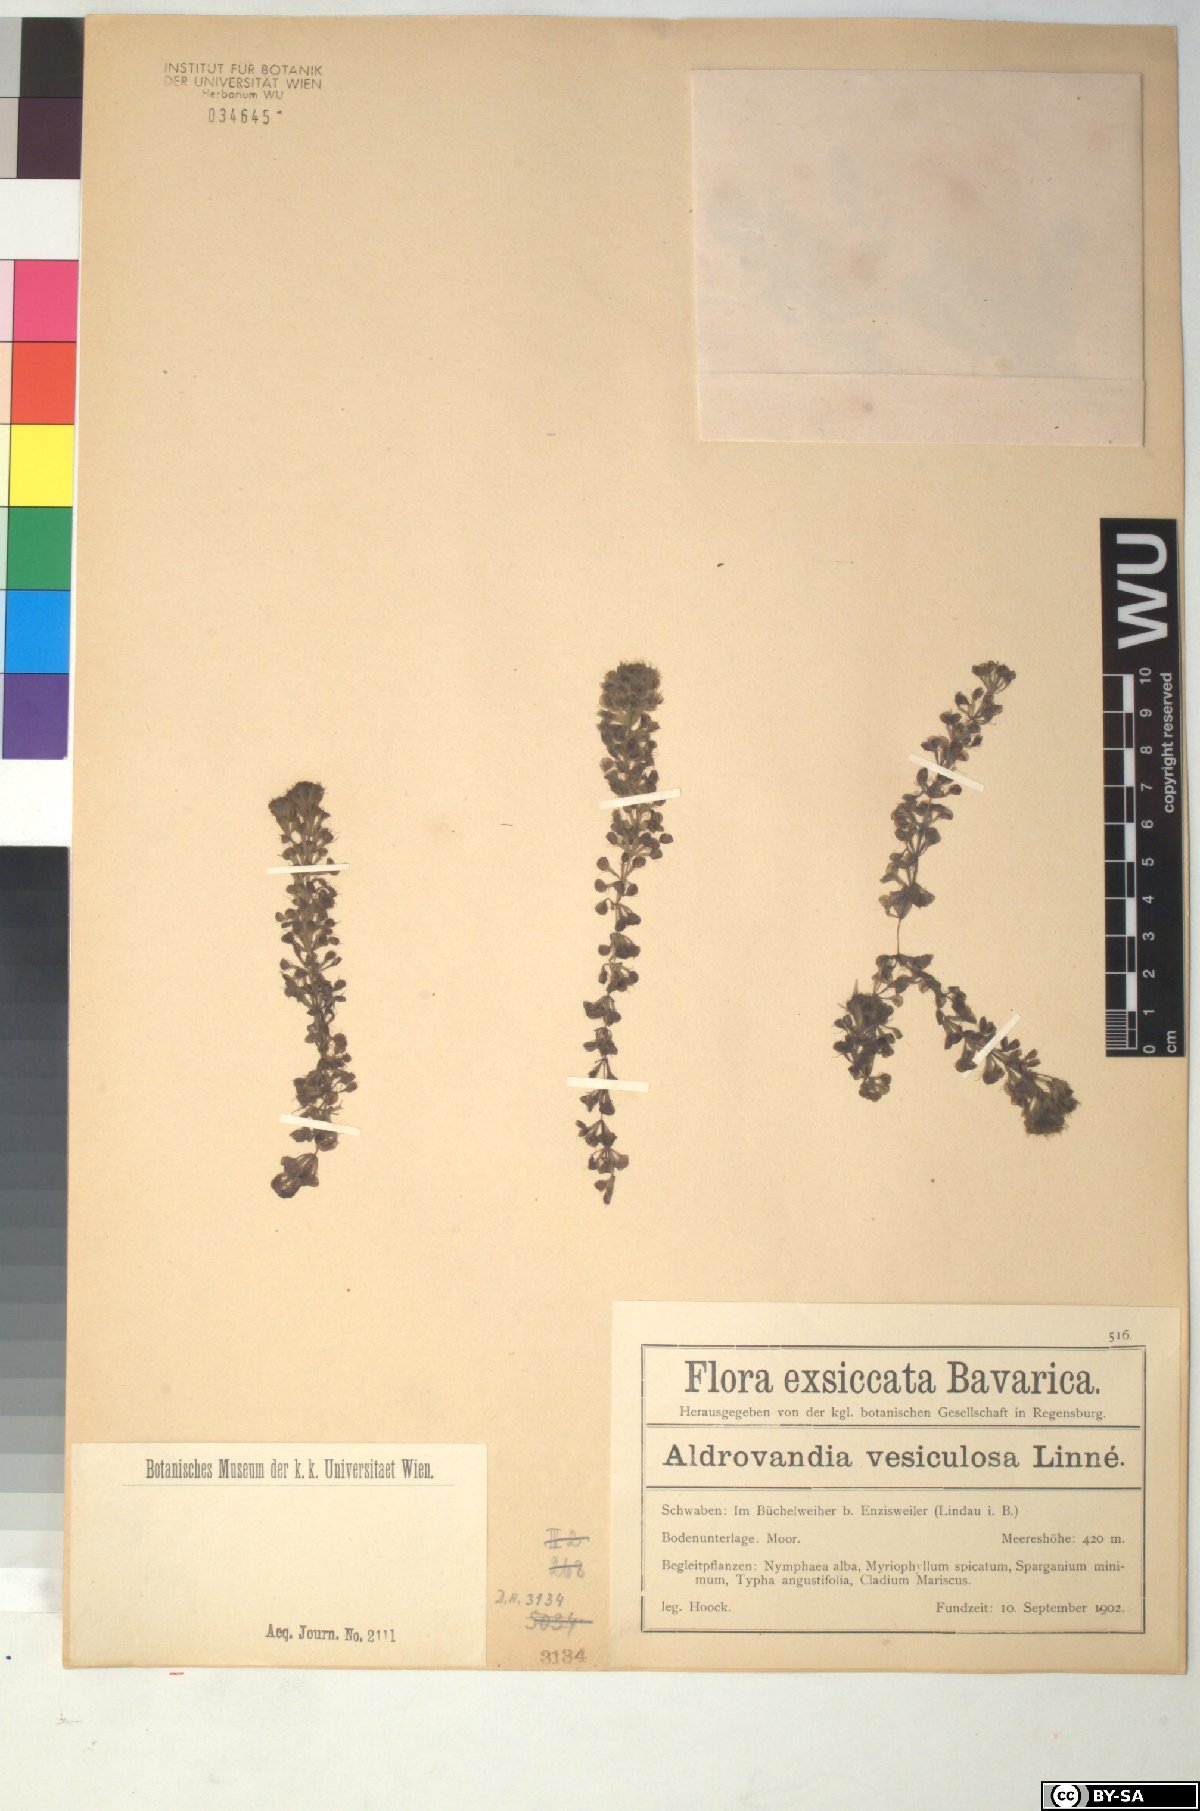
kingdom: Plantae
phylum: Tracheophyta
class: Magnoliopsida
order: Caryophyllales
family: Droseraceae
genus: Aldrovanda
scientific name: Aldrovanda vesiculosa
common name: Waterwheel plant
